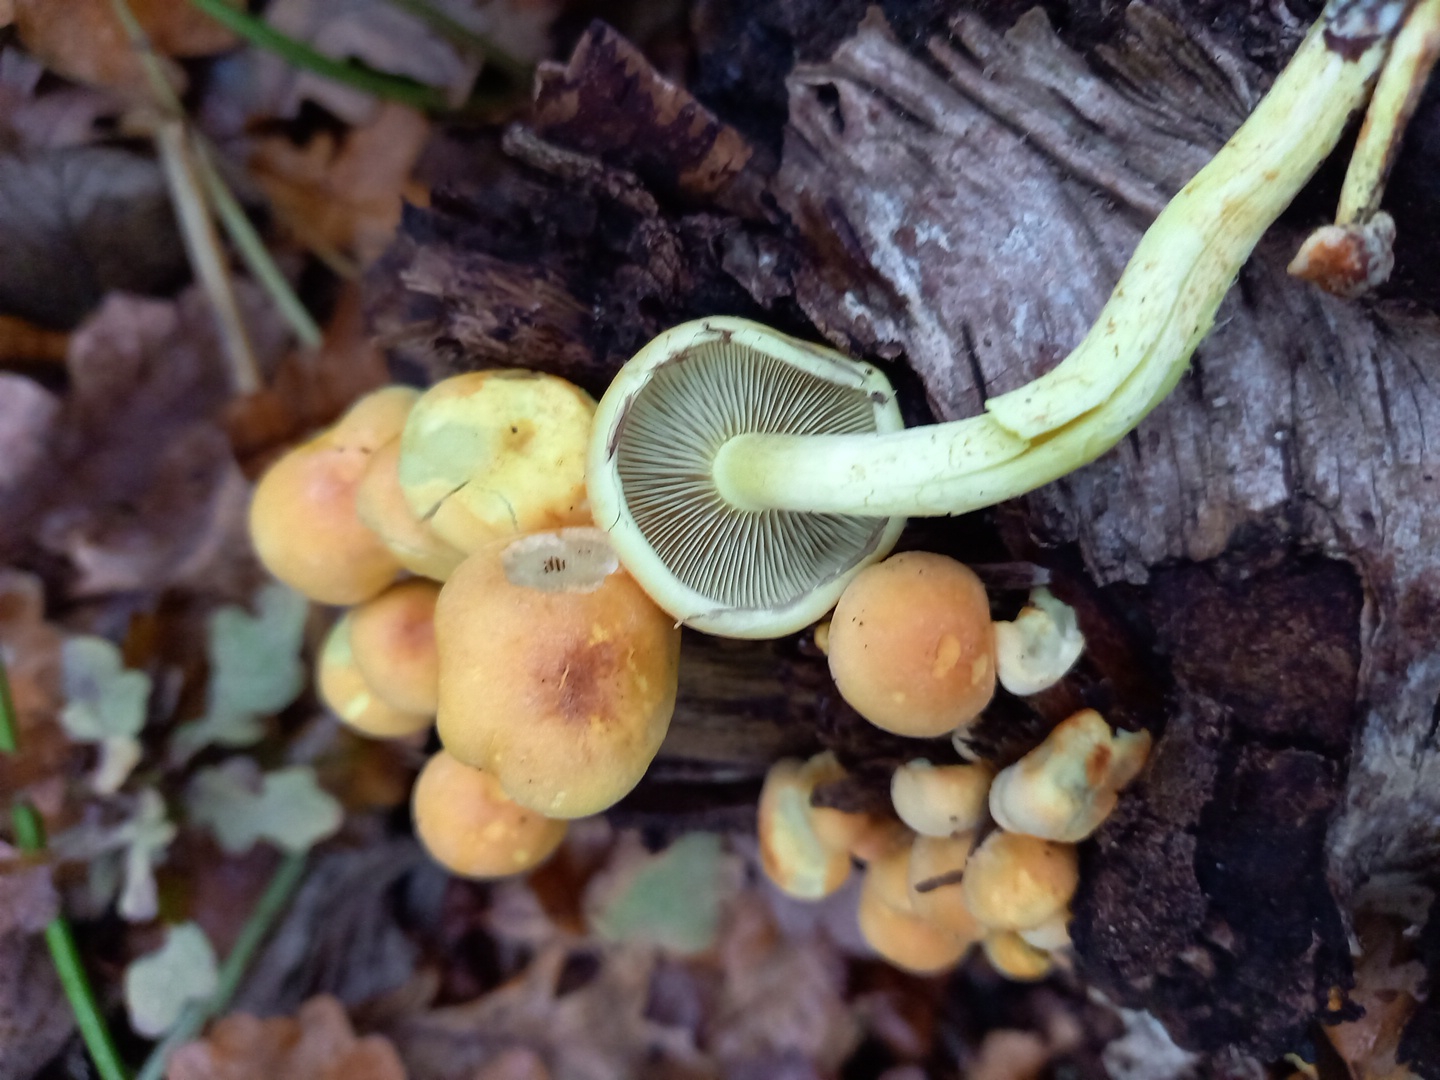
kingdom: Fungi
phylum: Basidiomycota
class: Agaricomycetes
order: Agaricales
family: Strophariaceae
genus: Hypholoma
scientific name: Hypholoma fasciculare
